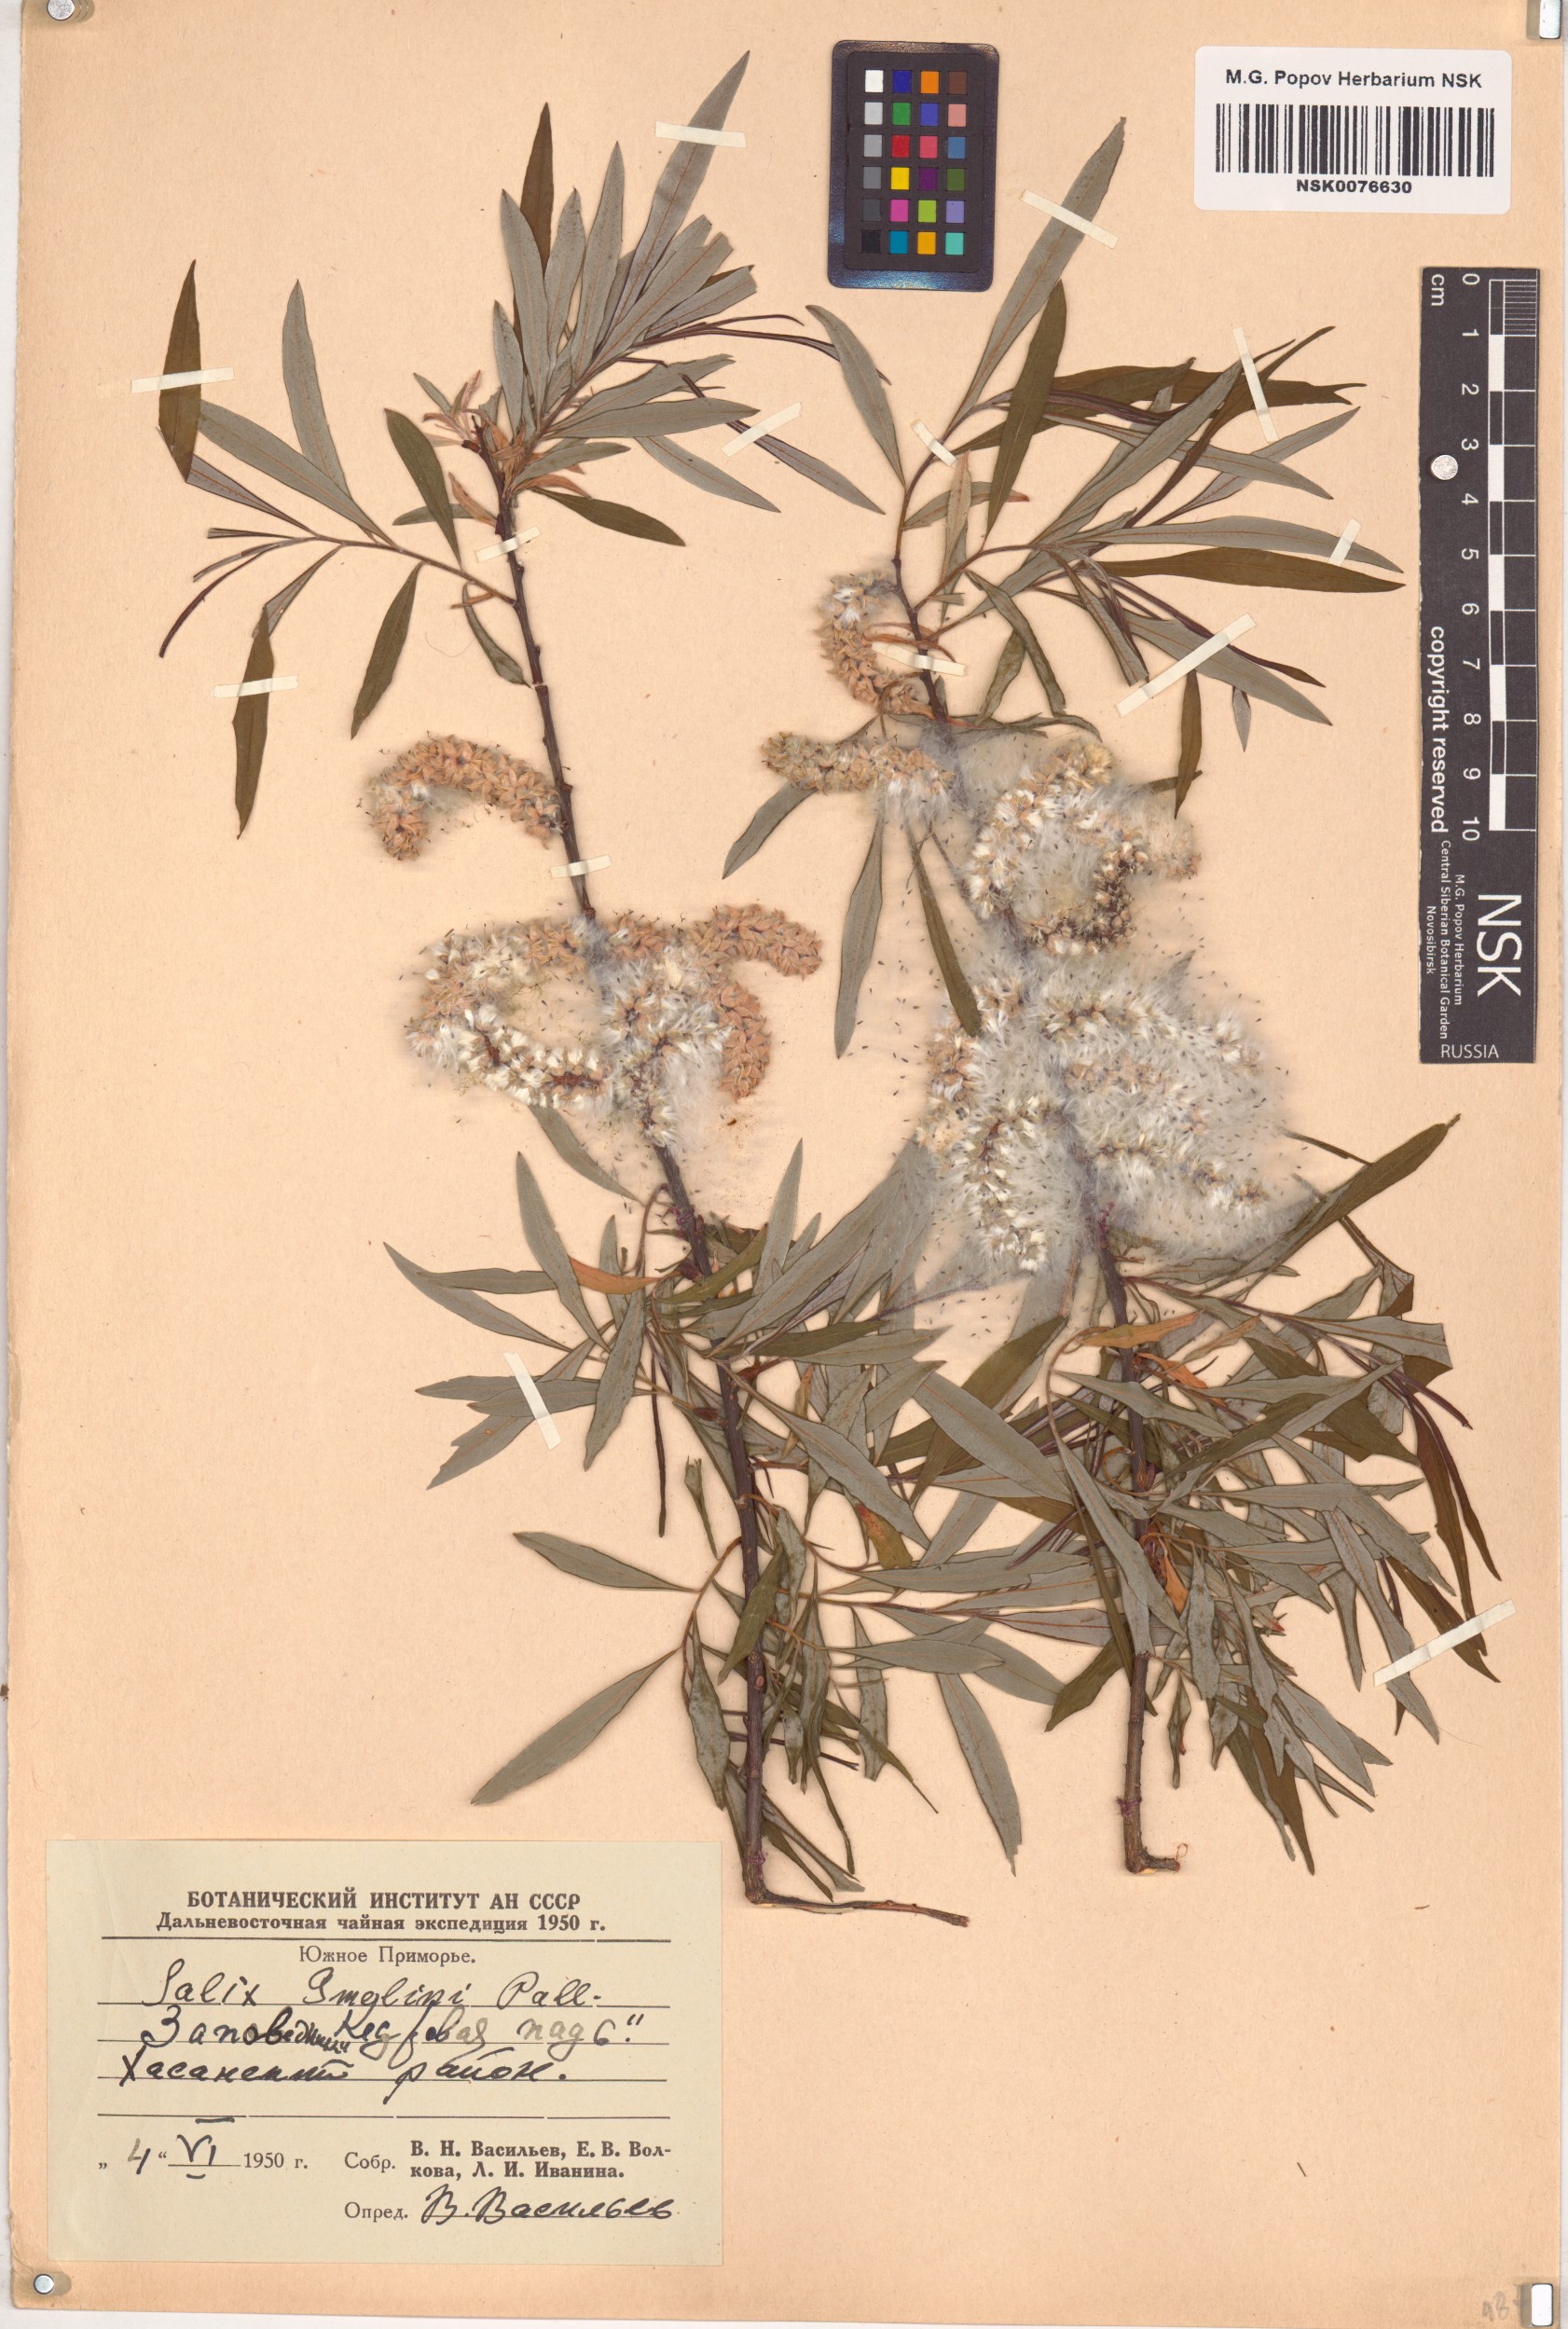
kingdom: Plantae
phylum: Tracheophyta
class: Magnoliopsida
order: Malpighiales
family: Salicaceae
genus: Salix
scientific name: Salix gmelinii
